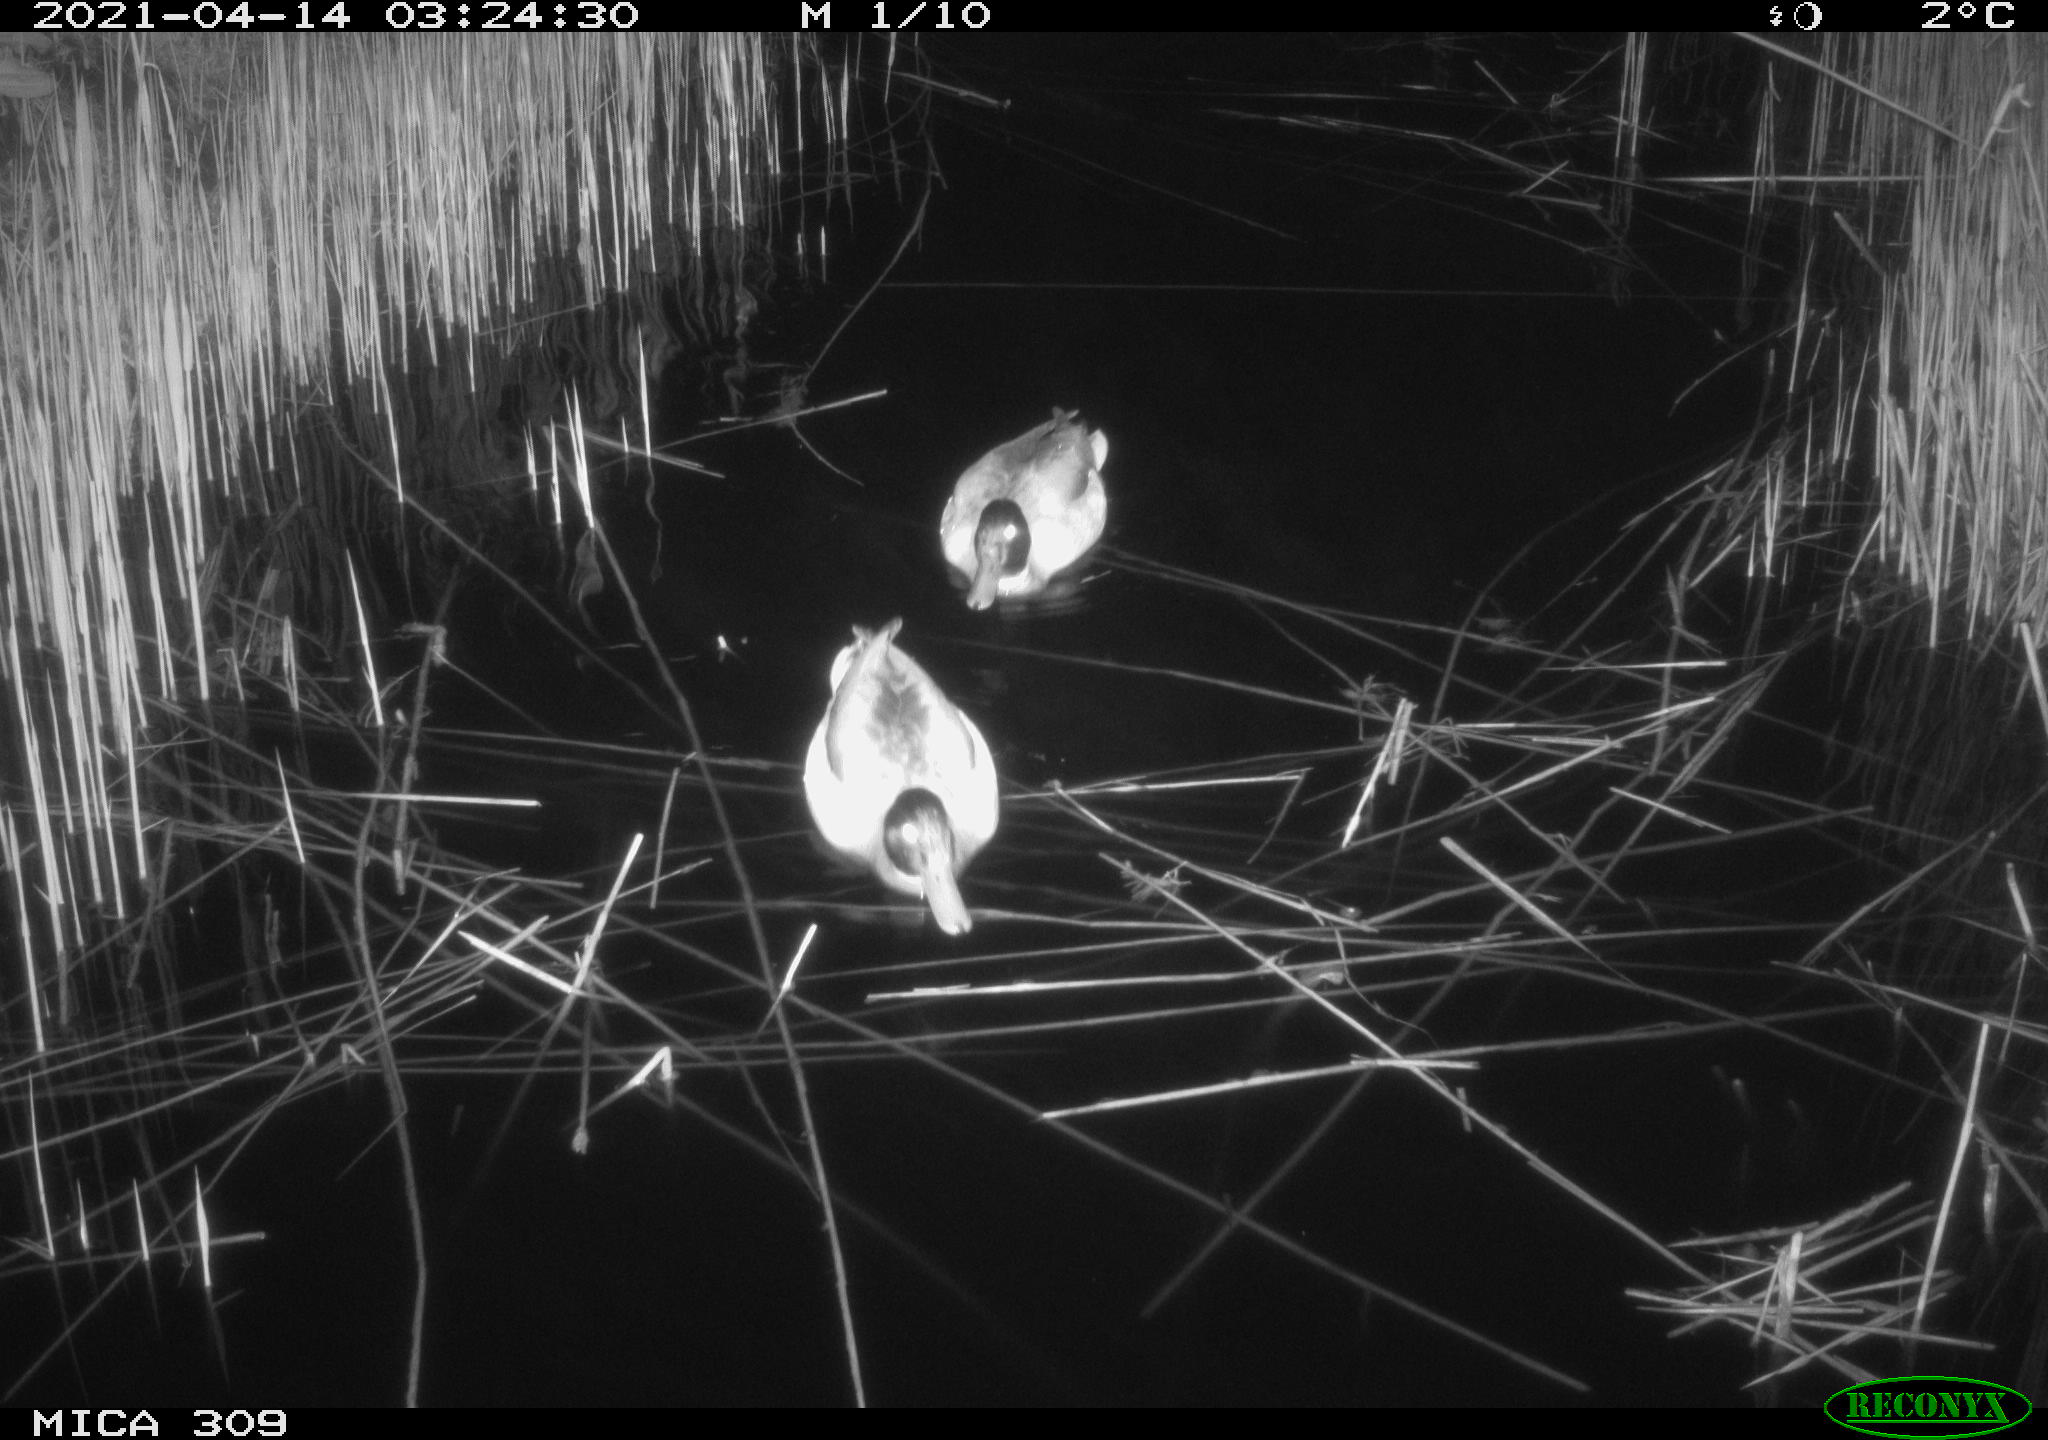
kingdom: Animalia
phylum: Chordata
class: Aves
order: Anseriformes
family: Anatidae
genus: Anas
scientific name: Anas platyrhynchos
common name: Mallard
